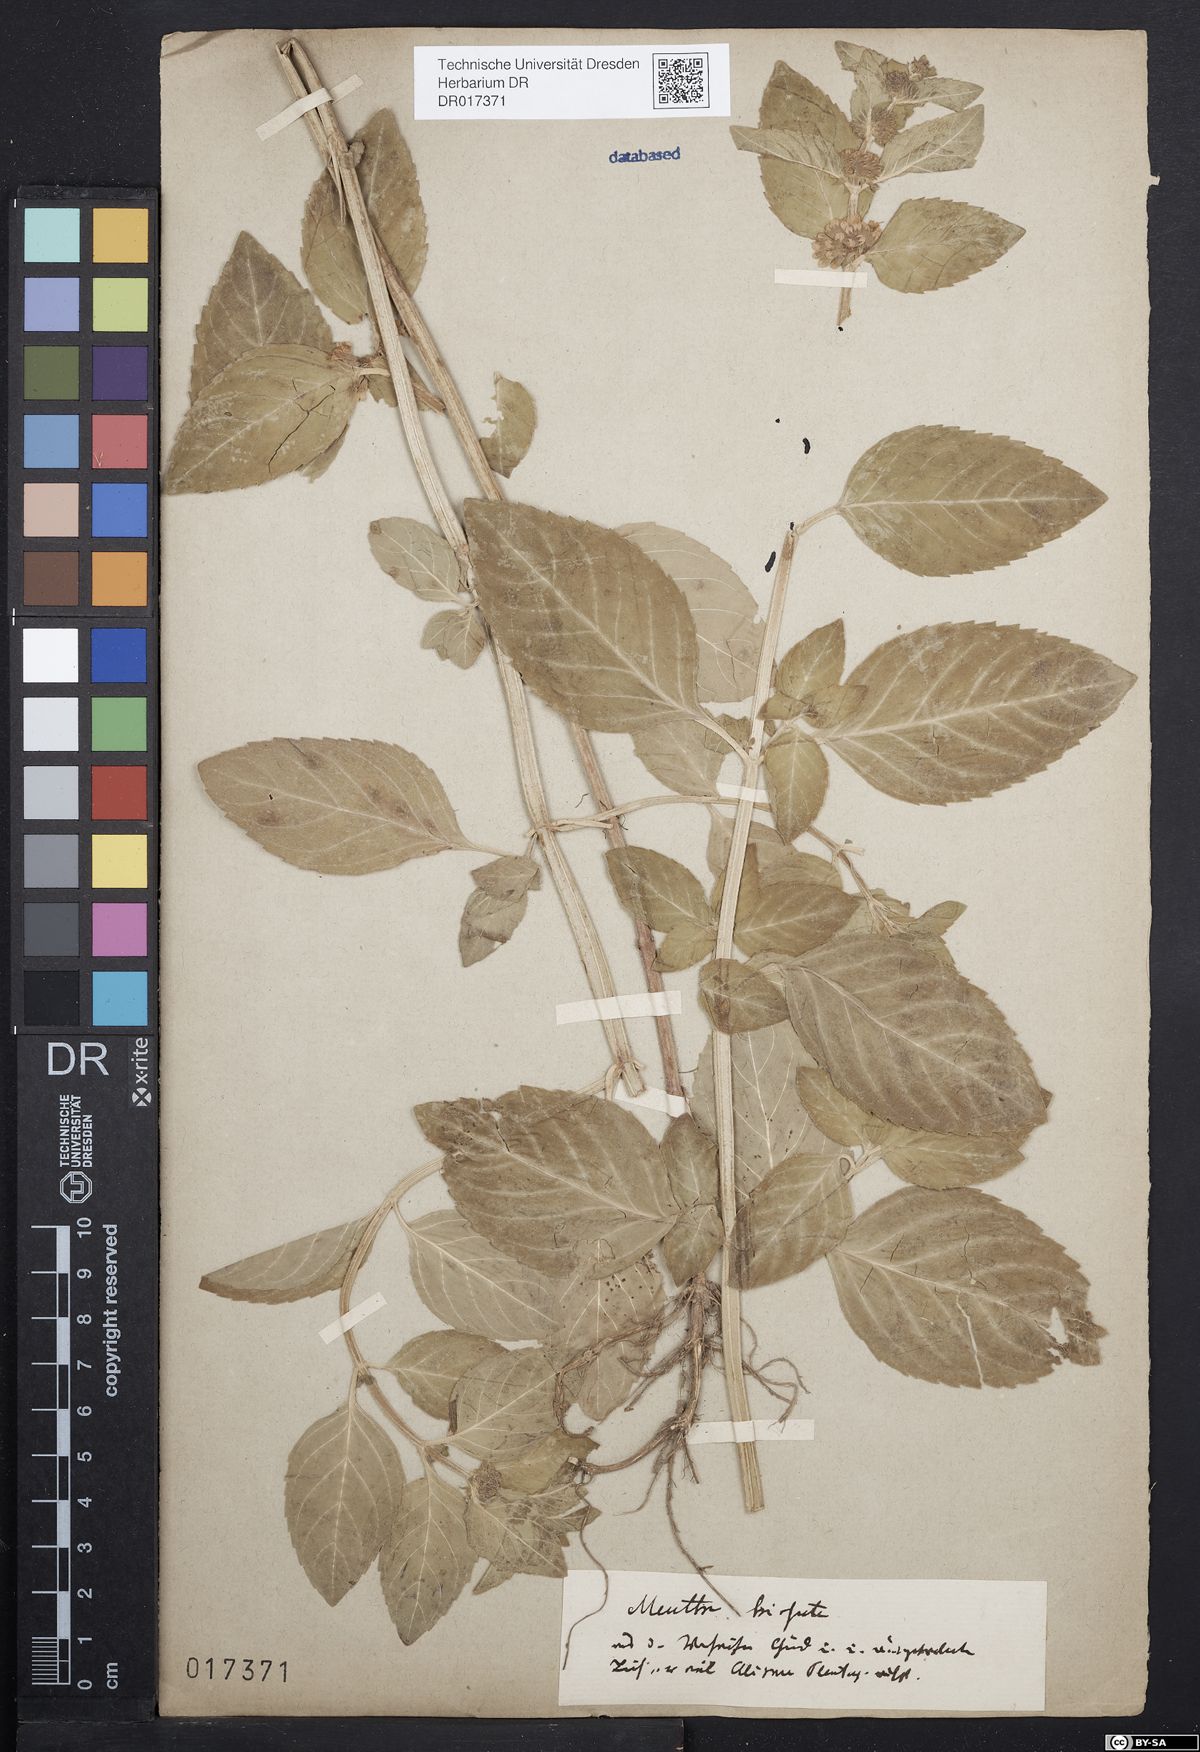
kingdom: Plantae
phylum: Tracheophyta
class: Magnoliopsida
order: Lamiales
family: Lamiaceae
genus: Mentha
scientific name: Mentha verticillata
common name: Mint
